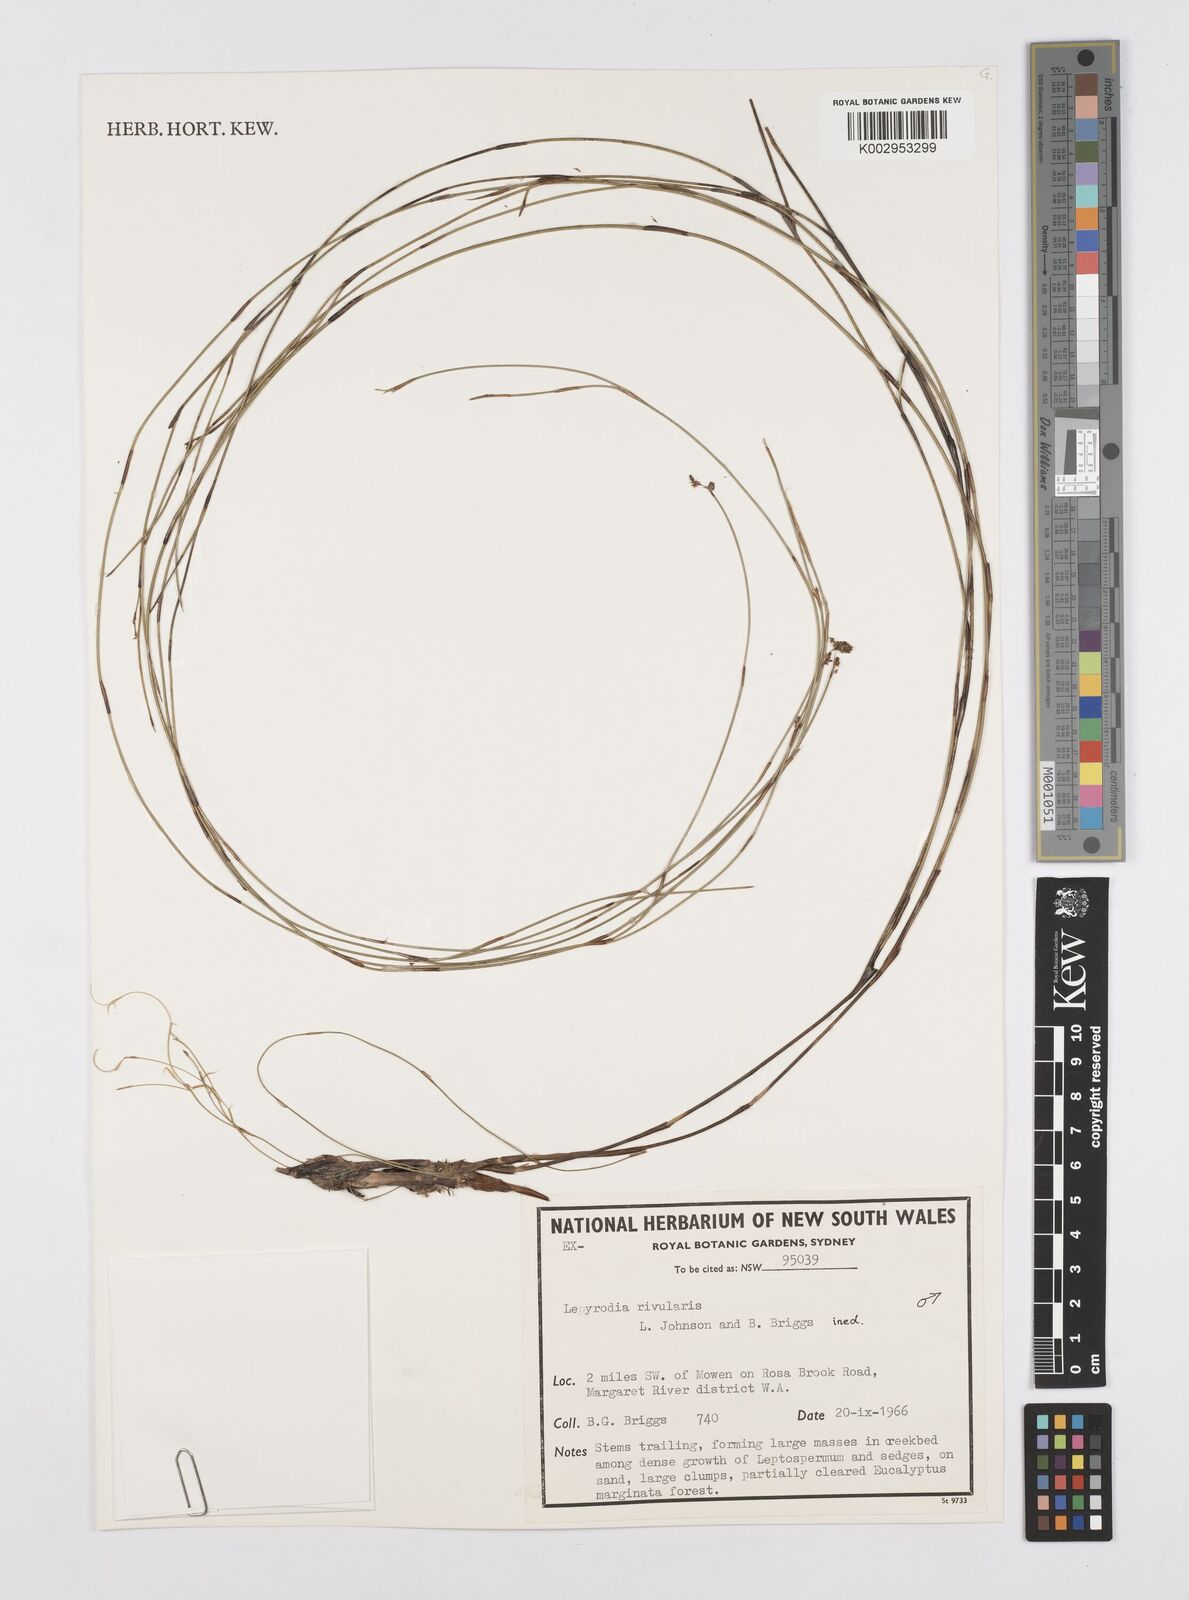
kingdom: Plantae
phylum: Tracheophyta
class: Liliopsida
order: Poales
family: Restionaceae
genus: Sporadanthus
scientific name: Sporadanthus rivularis
